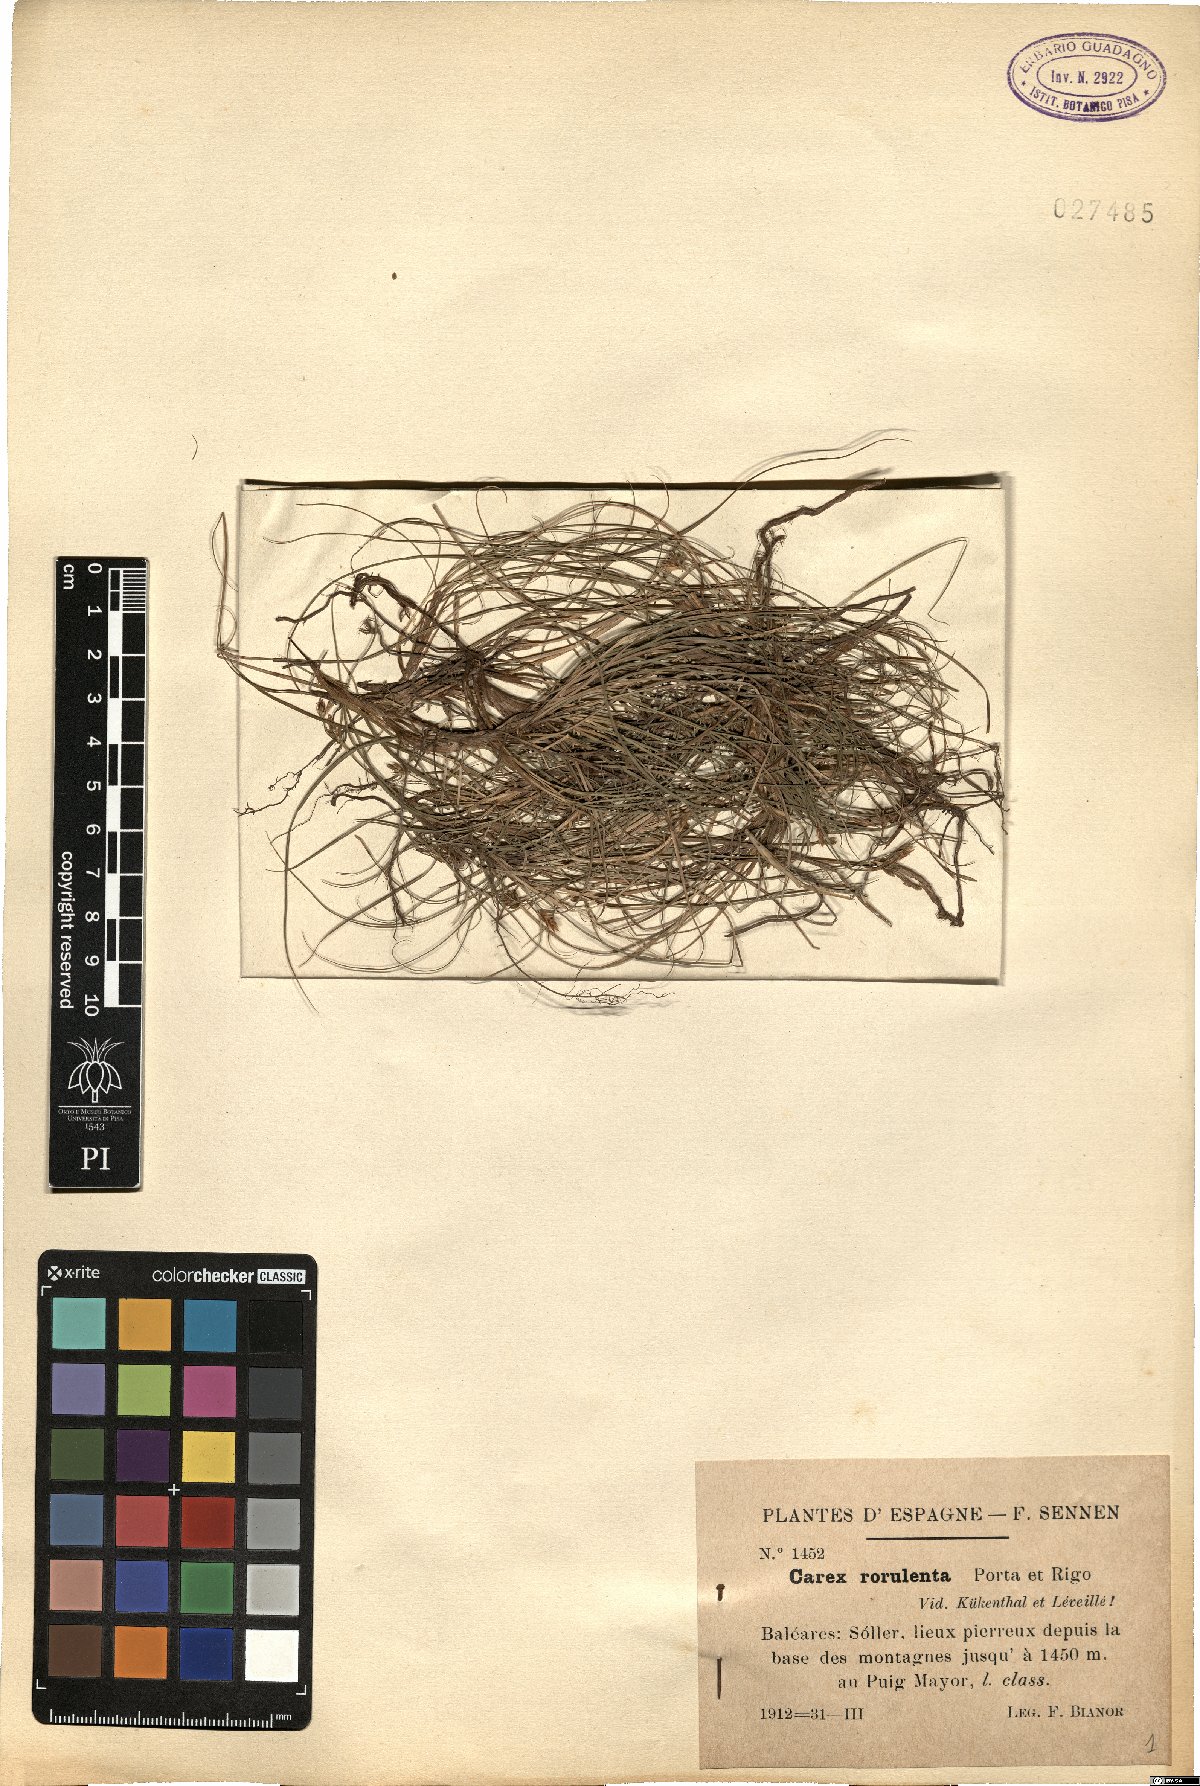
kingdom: Plantae
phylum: Tracheophyta
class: Liliopsida
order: Poales
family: Cyperaceae
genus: Carex
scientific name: Carex rorulenta
